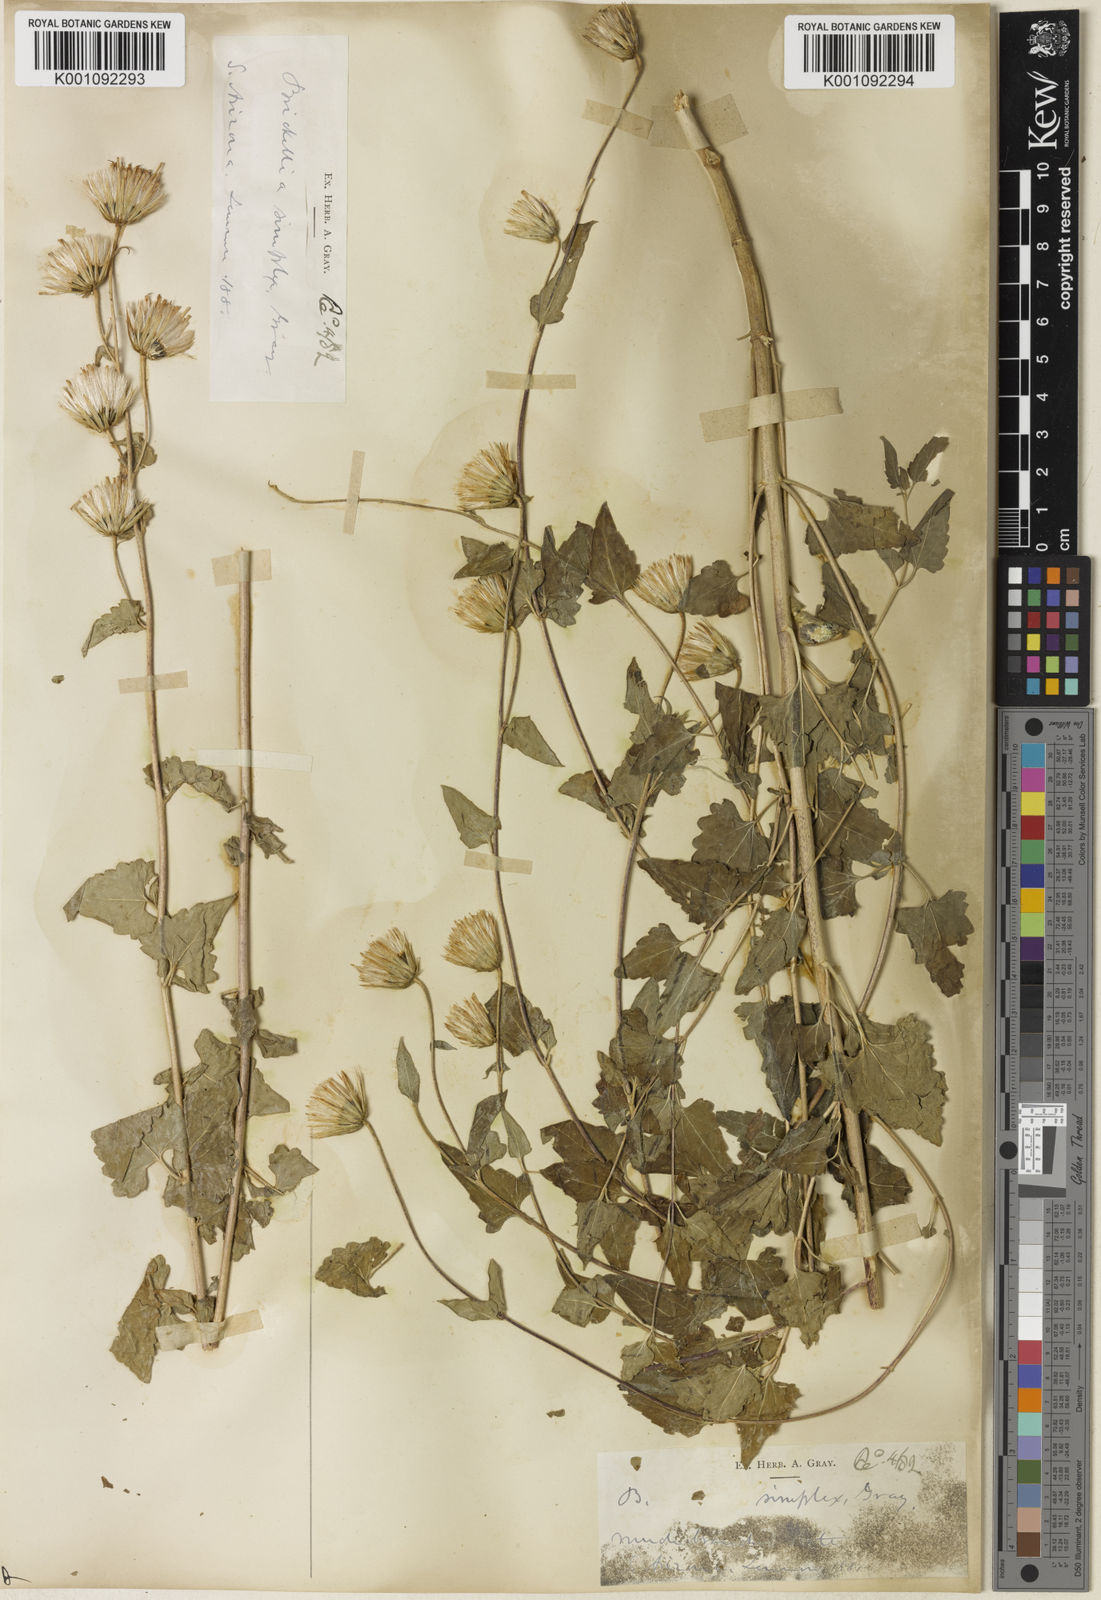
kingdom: Plantae
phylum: Tracheophyta
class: Magnoliopsida
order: Asterales
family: Asteraceae
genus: Brickellia
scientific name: Brickellia simplex
